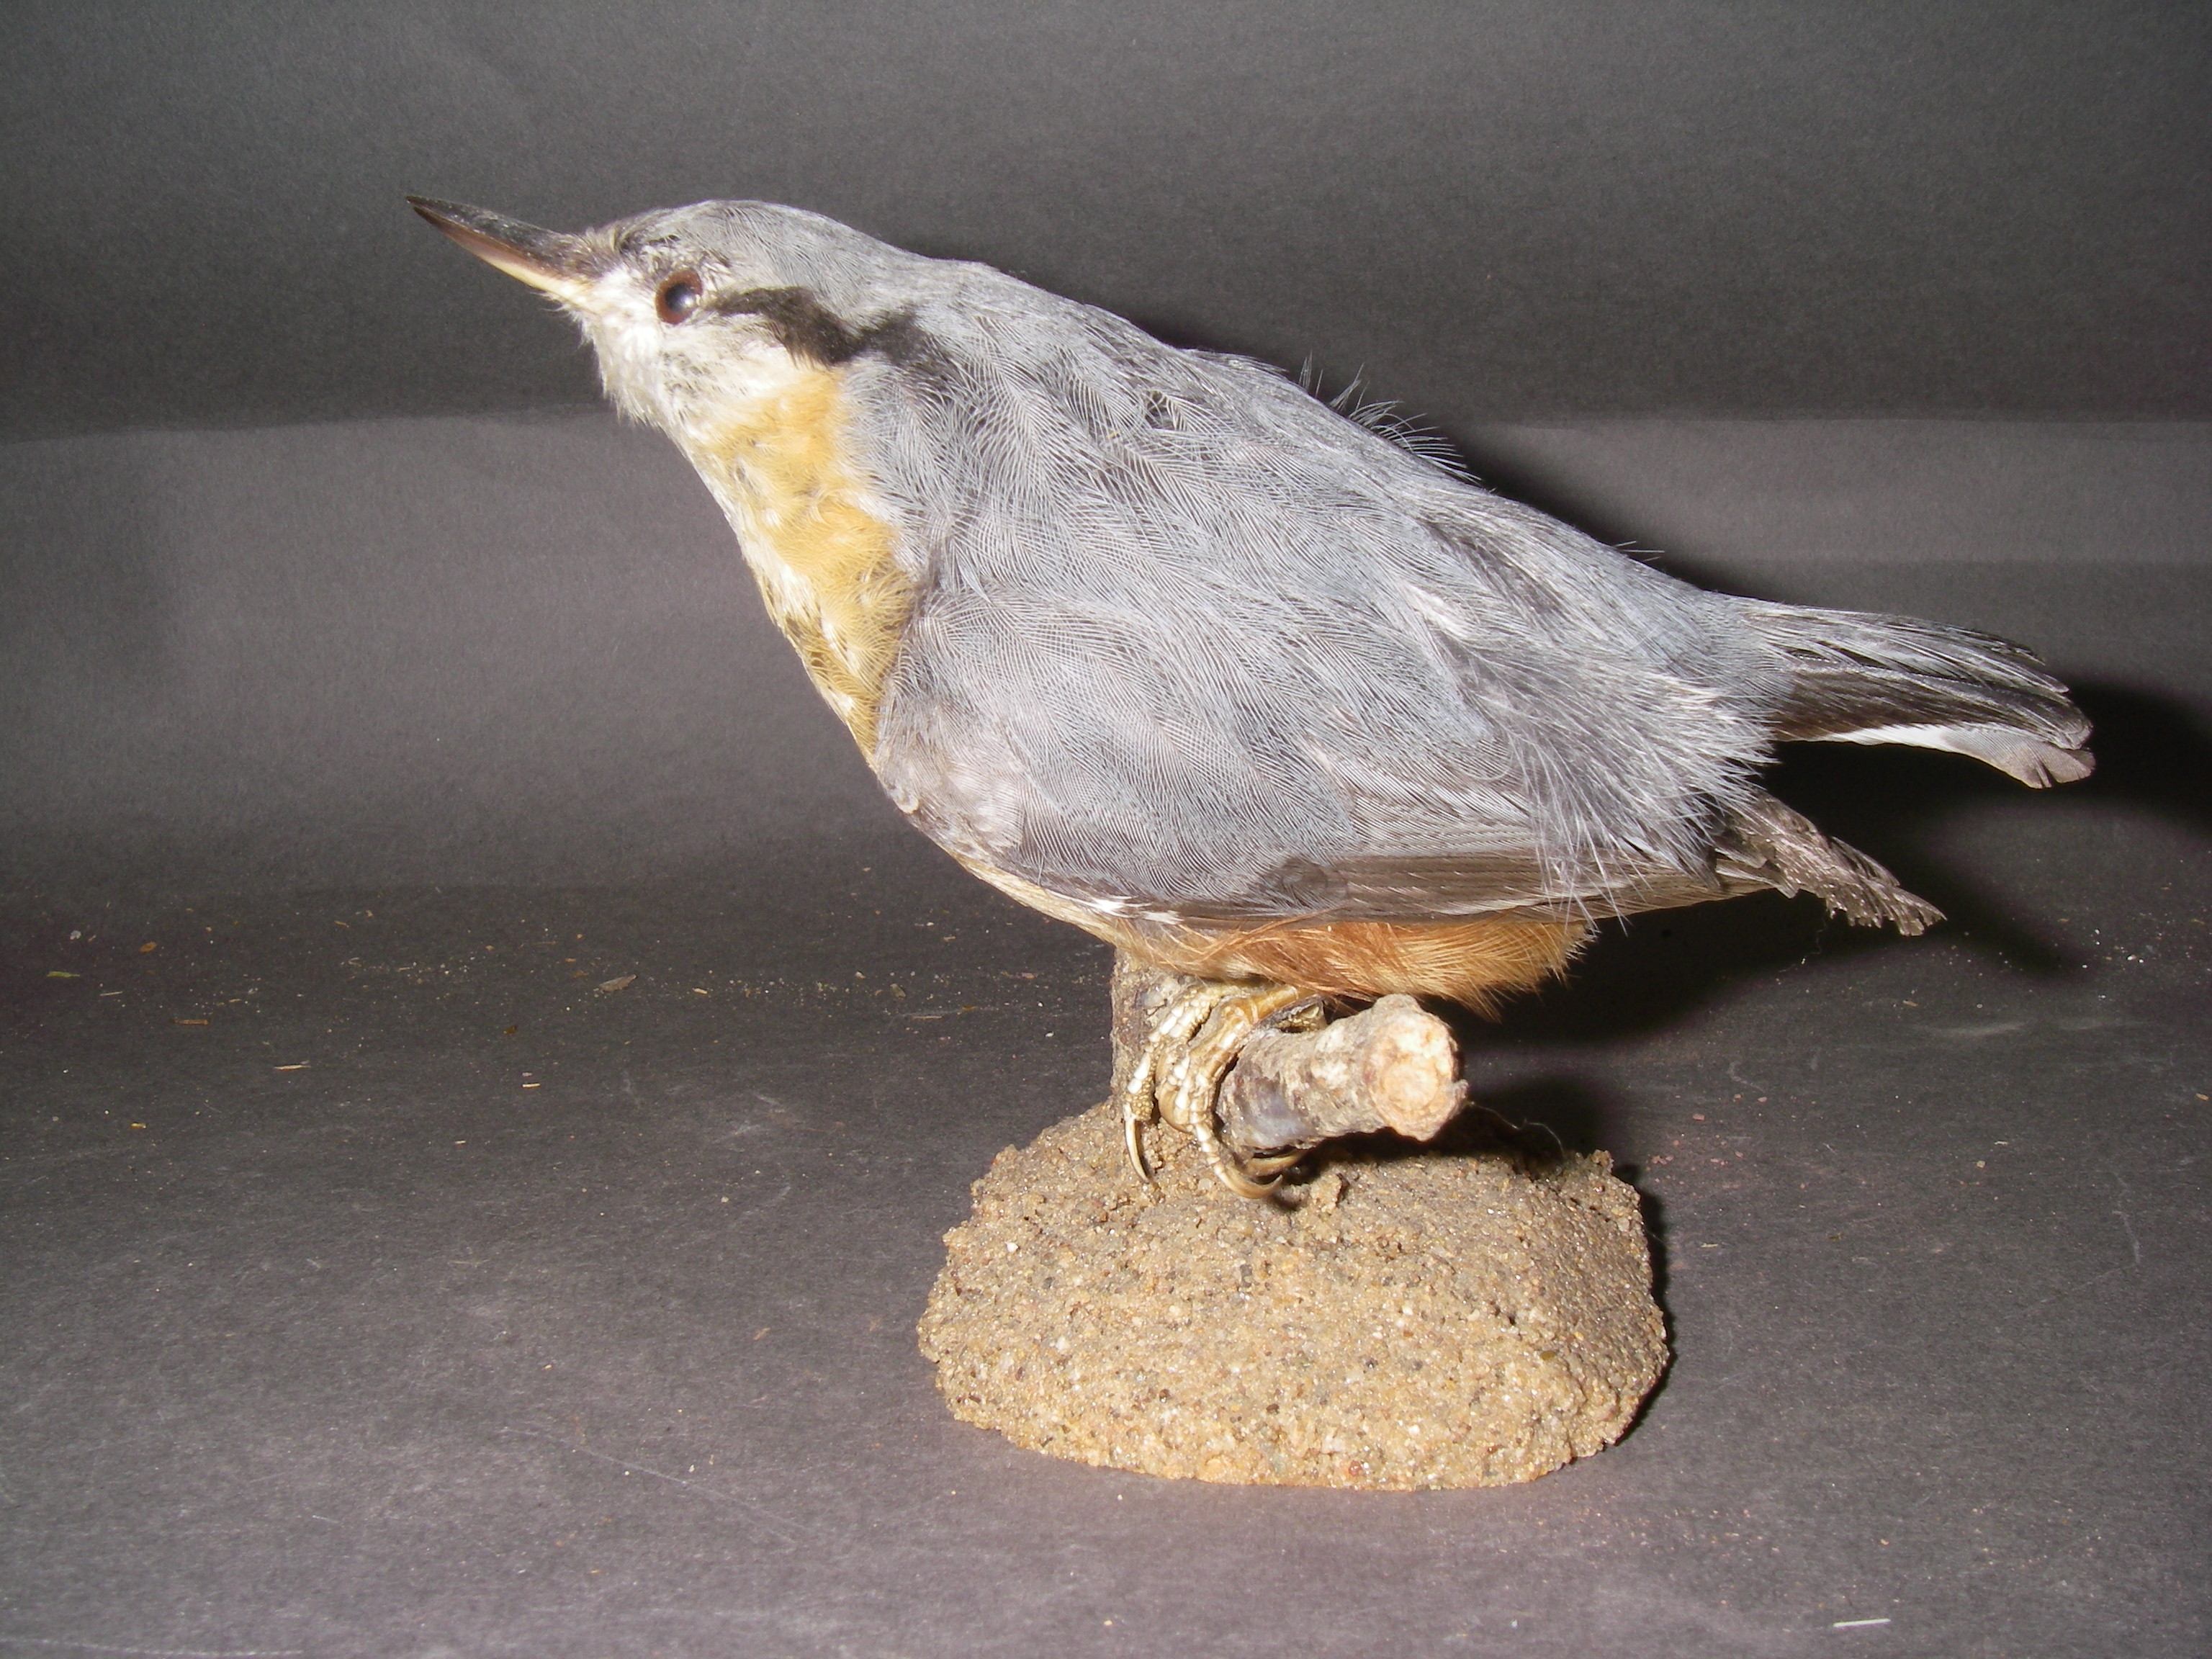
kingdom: Animalia
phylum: Chordata
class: Aves
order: Passeriformes
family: Sittidae
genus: Sitta
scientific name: Sitta europaea
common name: Eurasian nuthatch
